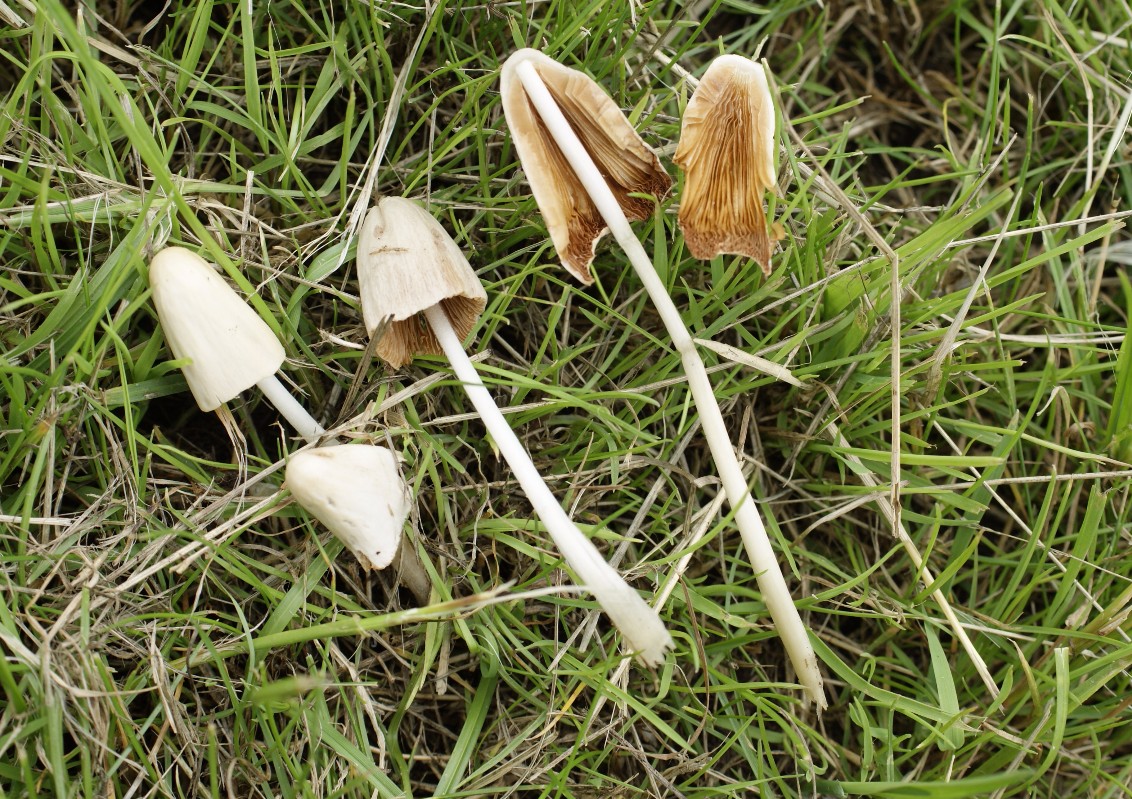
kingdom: Fungi
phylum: Basidiomycota
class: Agaricomycetes
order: Agaricales
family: Bolbitiaceae
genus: Conocybe
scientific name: Conocybe apala
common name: mælkehvid keglehat
